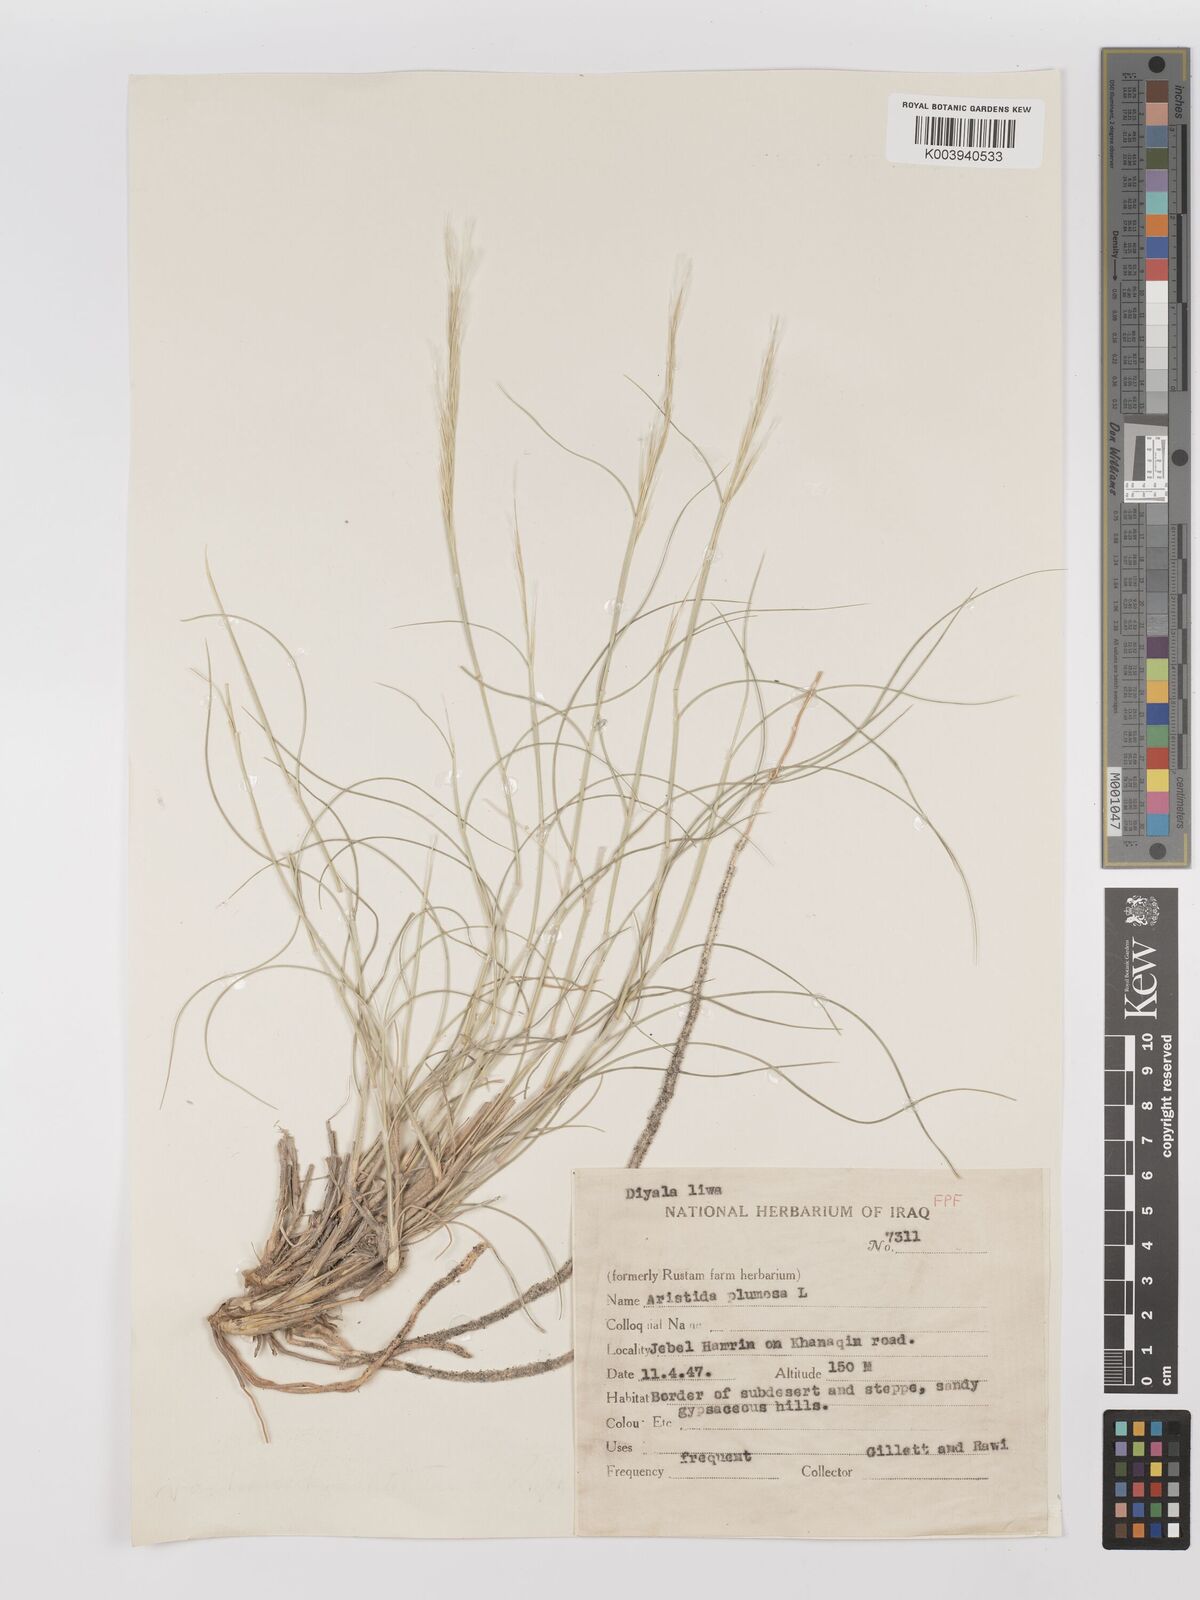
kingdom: Plantae
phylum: Tracheophyta
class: Liliopsida
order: Poales
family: Poaceae
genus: Stipagrostis
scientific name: Stipagrostis plumosa
